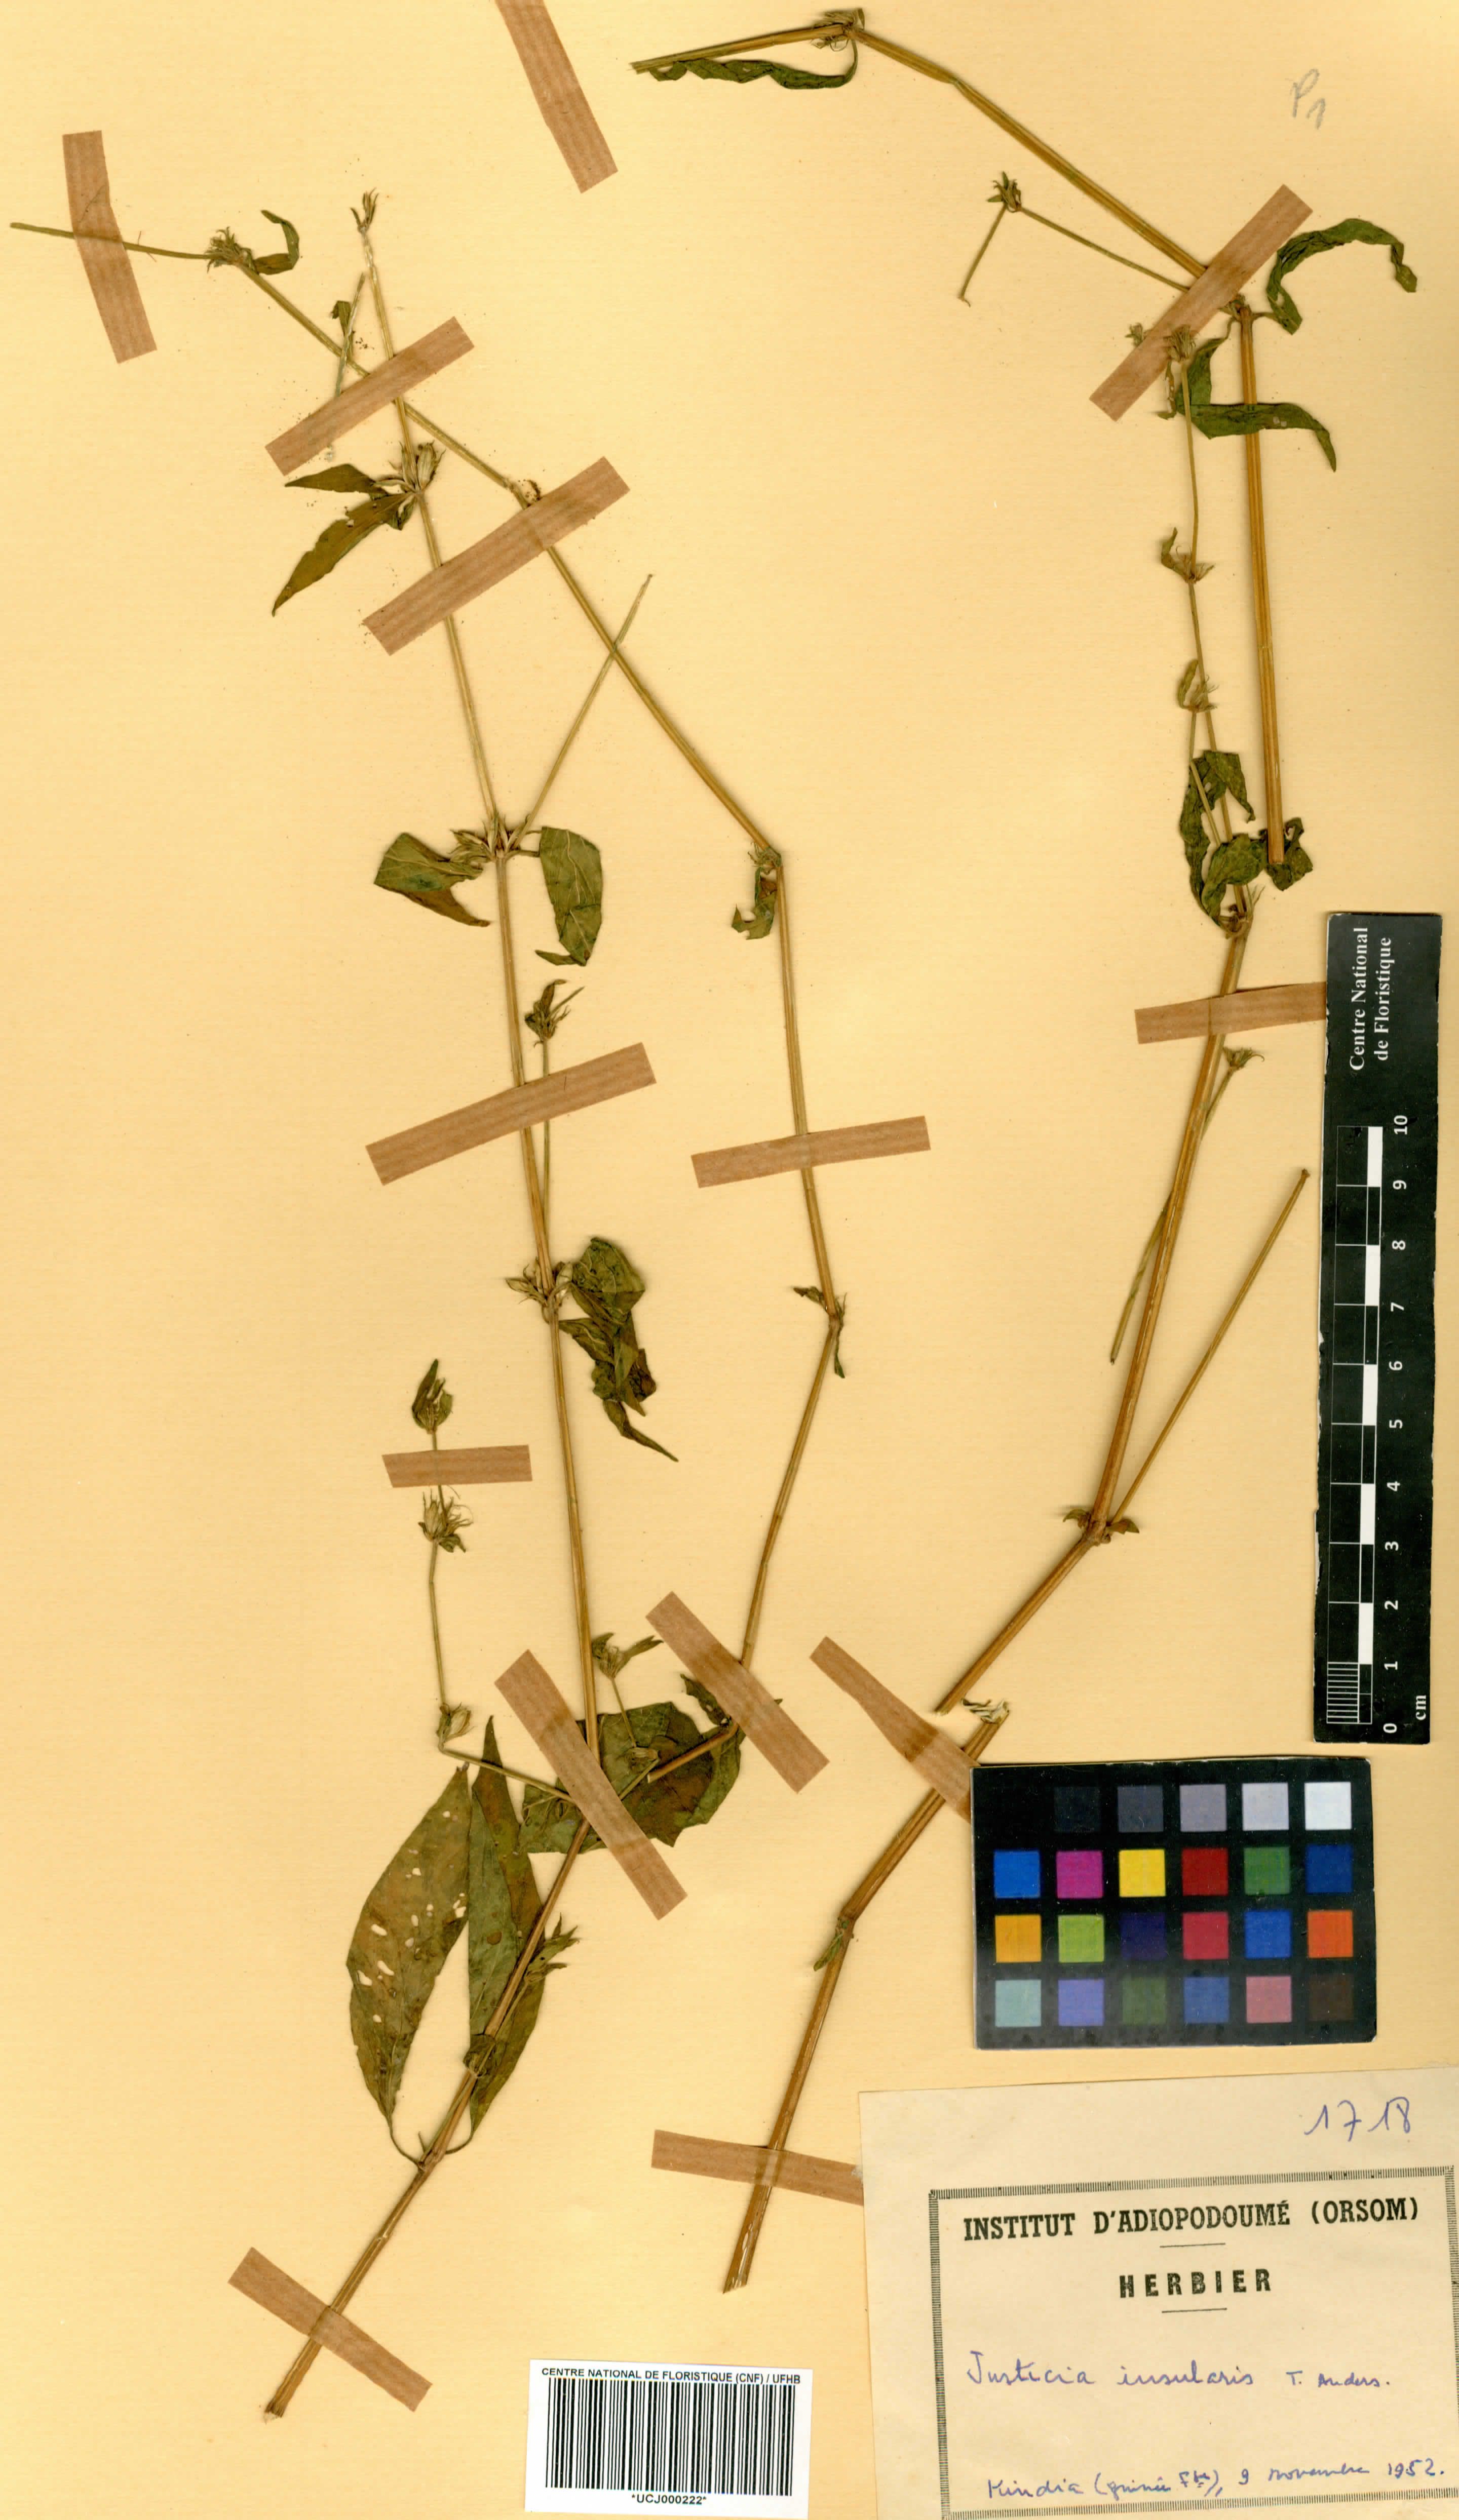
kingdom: Plantae
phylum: Tracheophyta
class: Magnoliopsida
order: Lamiales
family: Acanthaceae
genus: Justicia
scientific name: Justicia insularis
